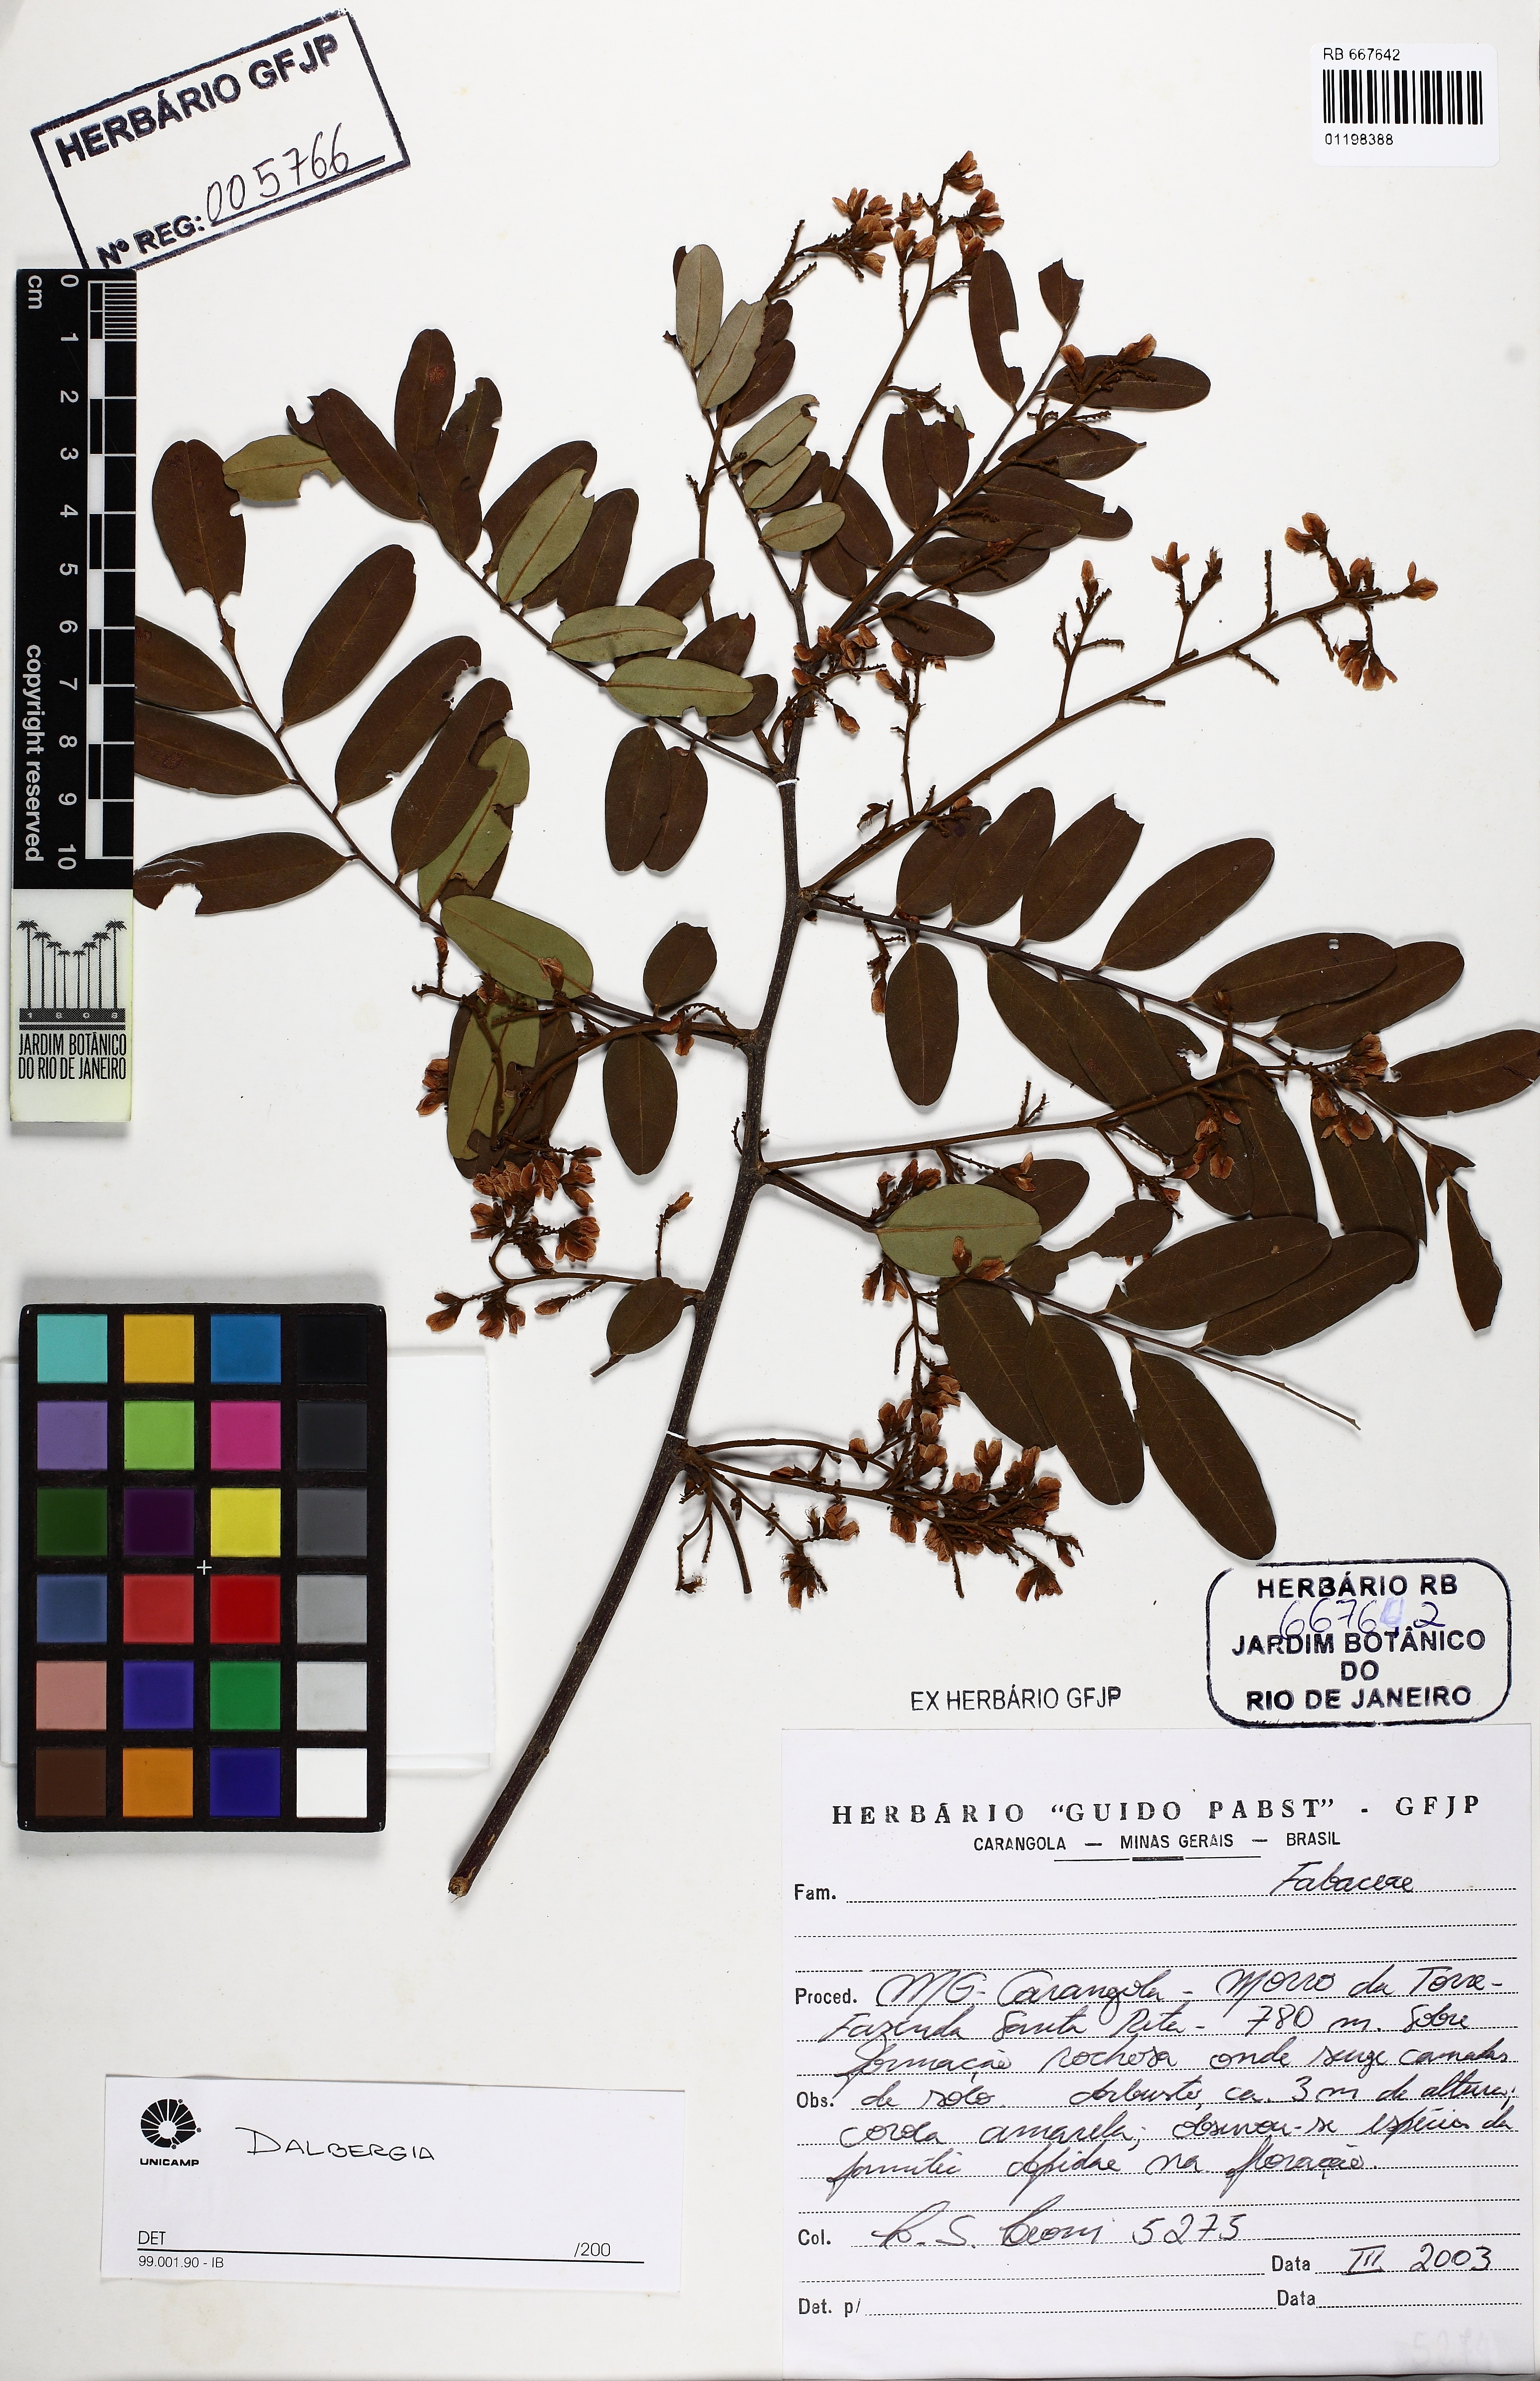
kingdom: Plantae
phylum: Tracheophyta
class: Magnoliopsida
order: Fabales
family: Fabaceae
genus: Dalbergia
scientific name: Dalbergia
